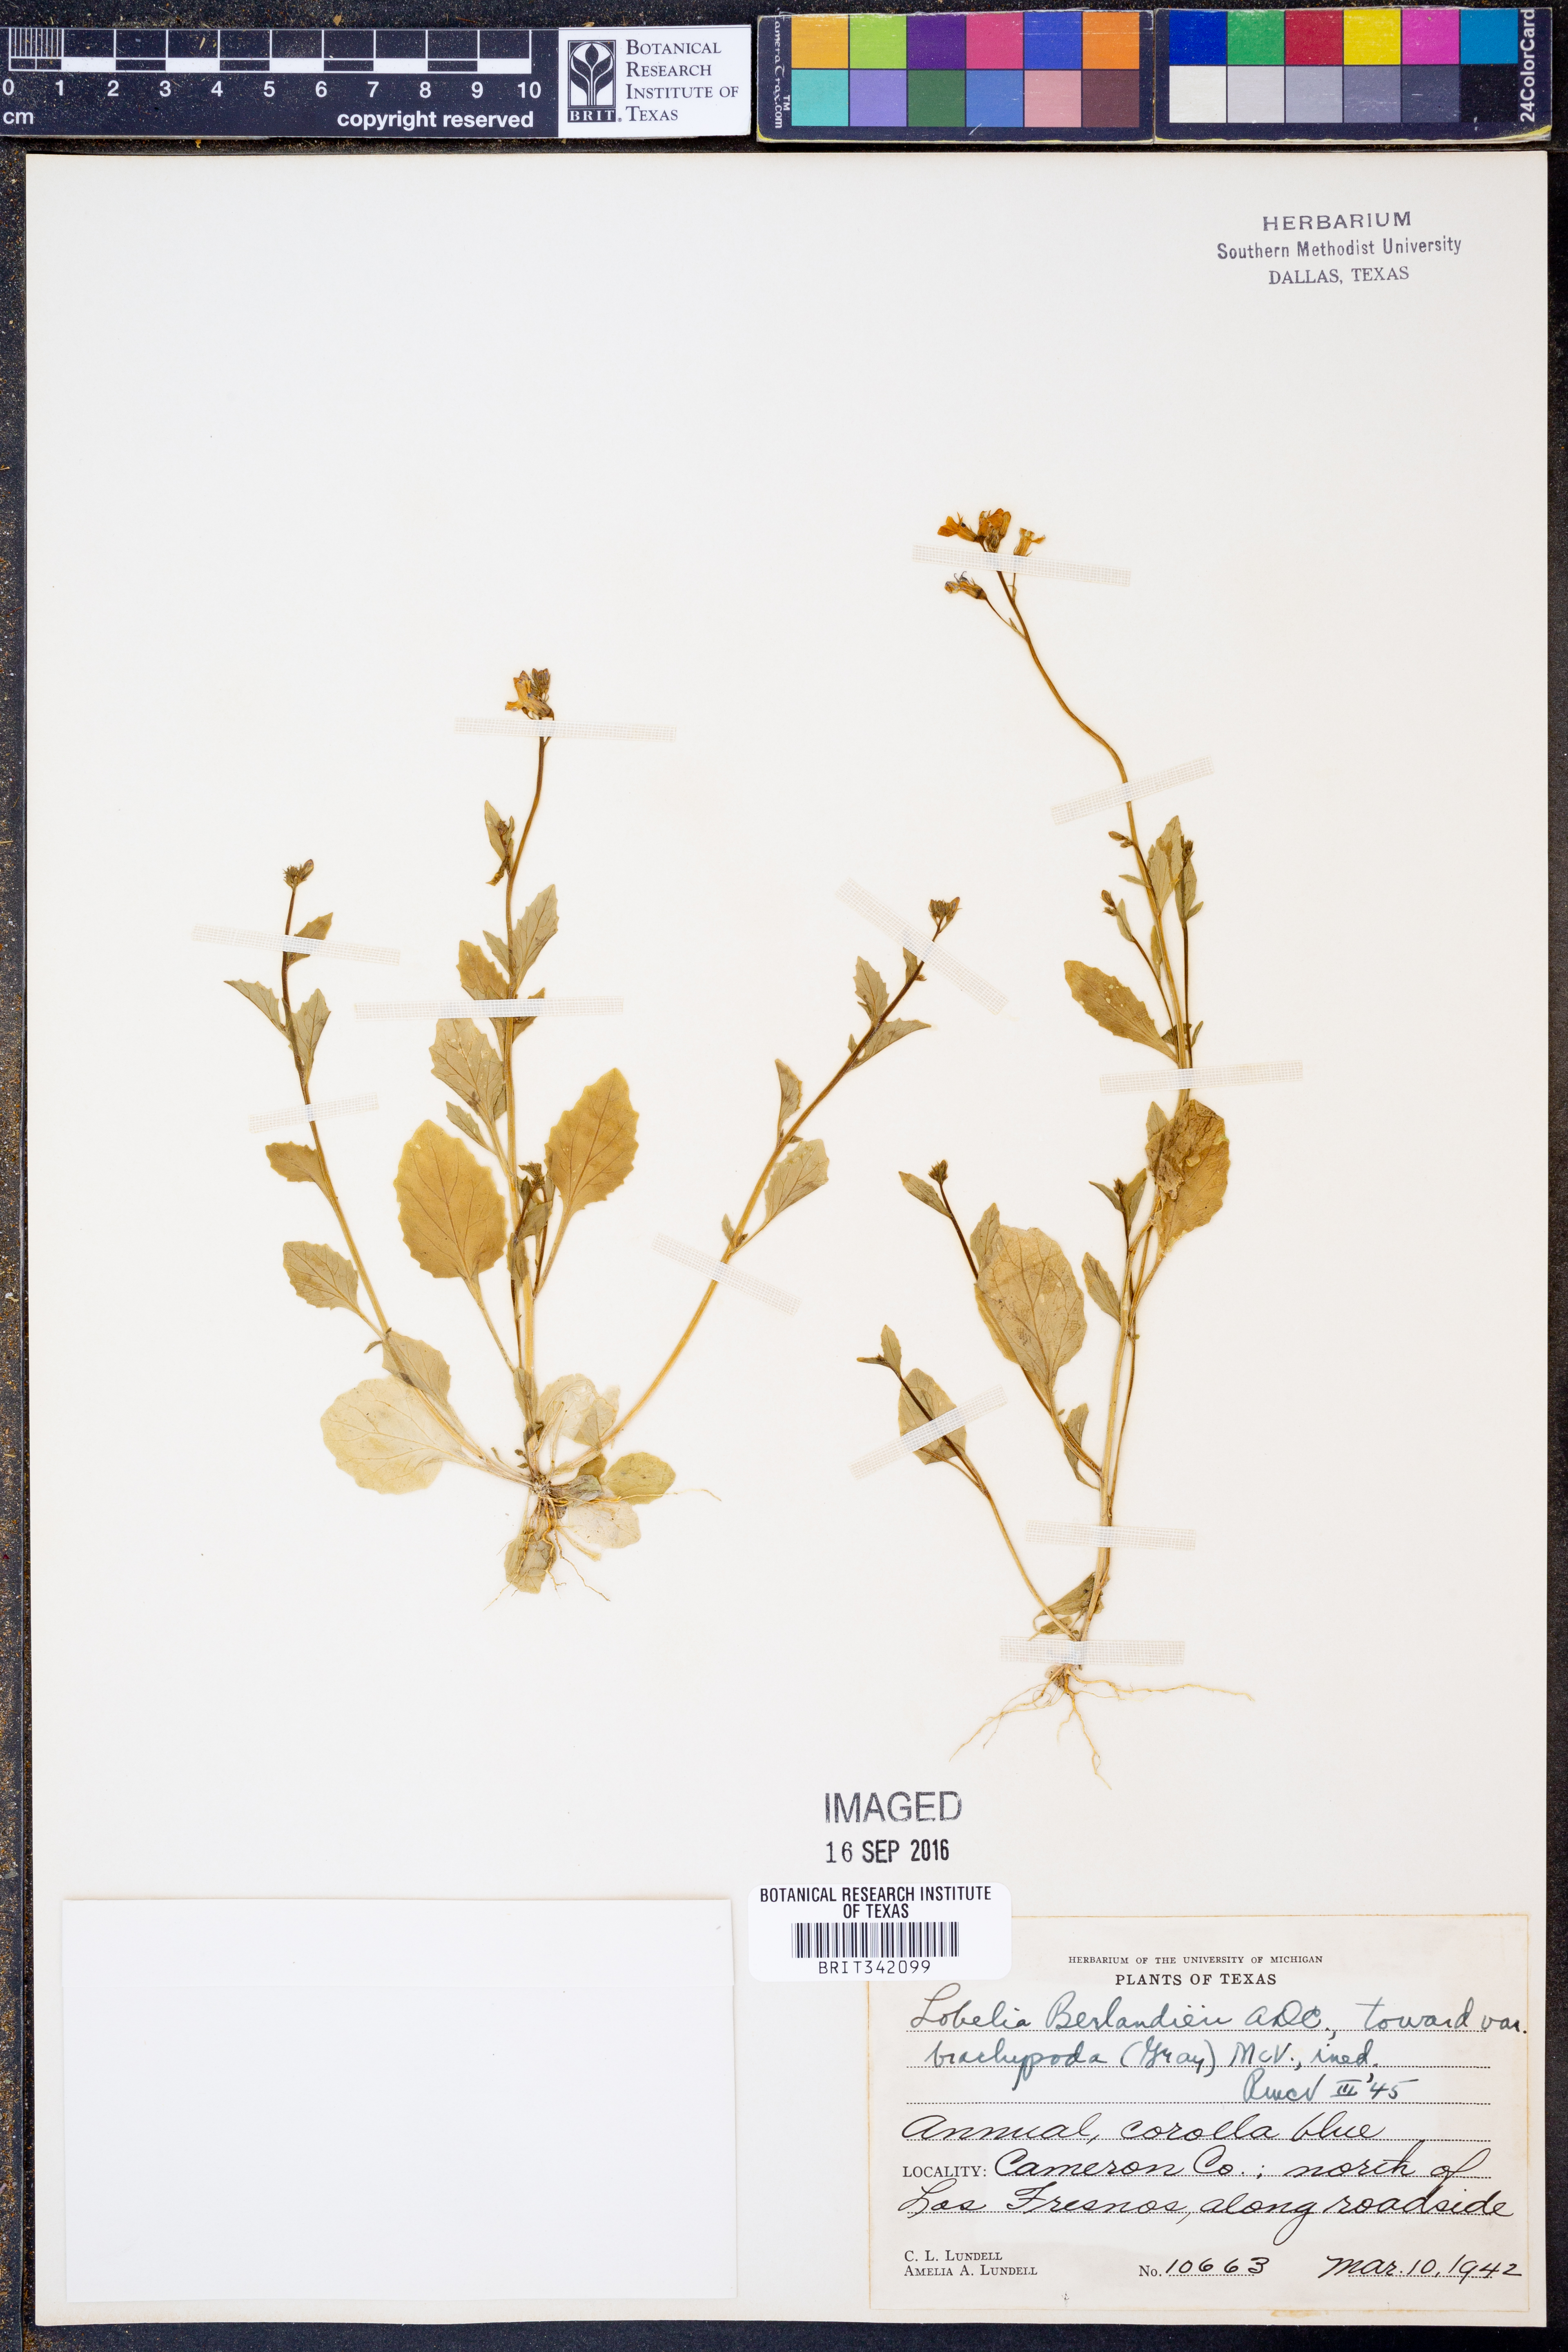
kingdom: Plantae
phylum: Tracheophyta
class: Magnoliopsida
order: Asterales
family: Campanulaceae
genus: Lobelia
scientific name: Lobelia berlandieri
